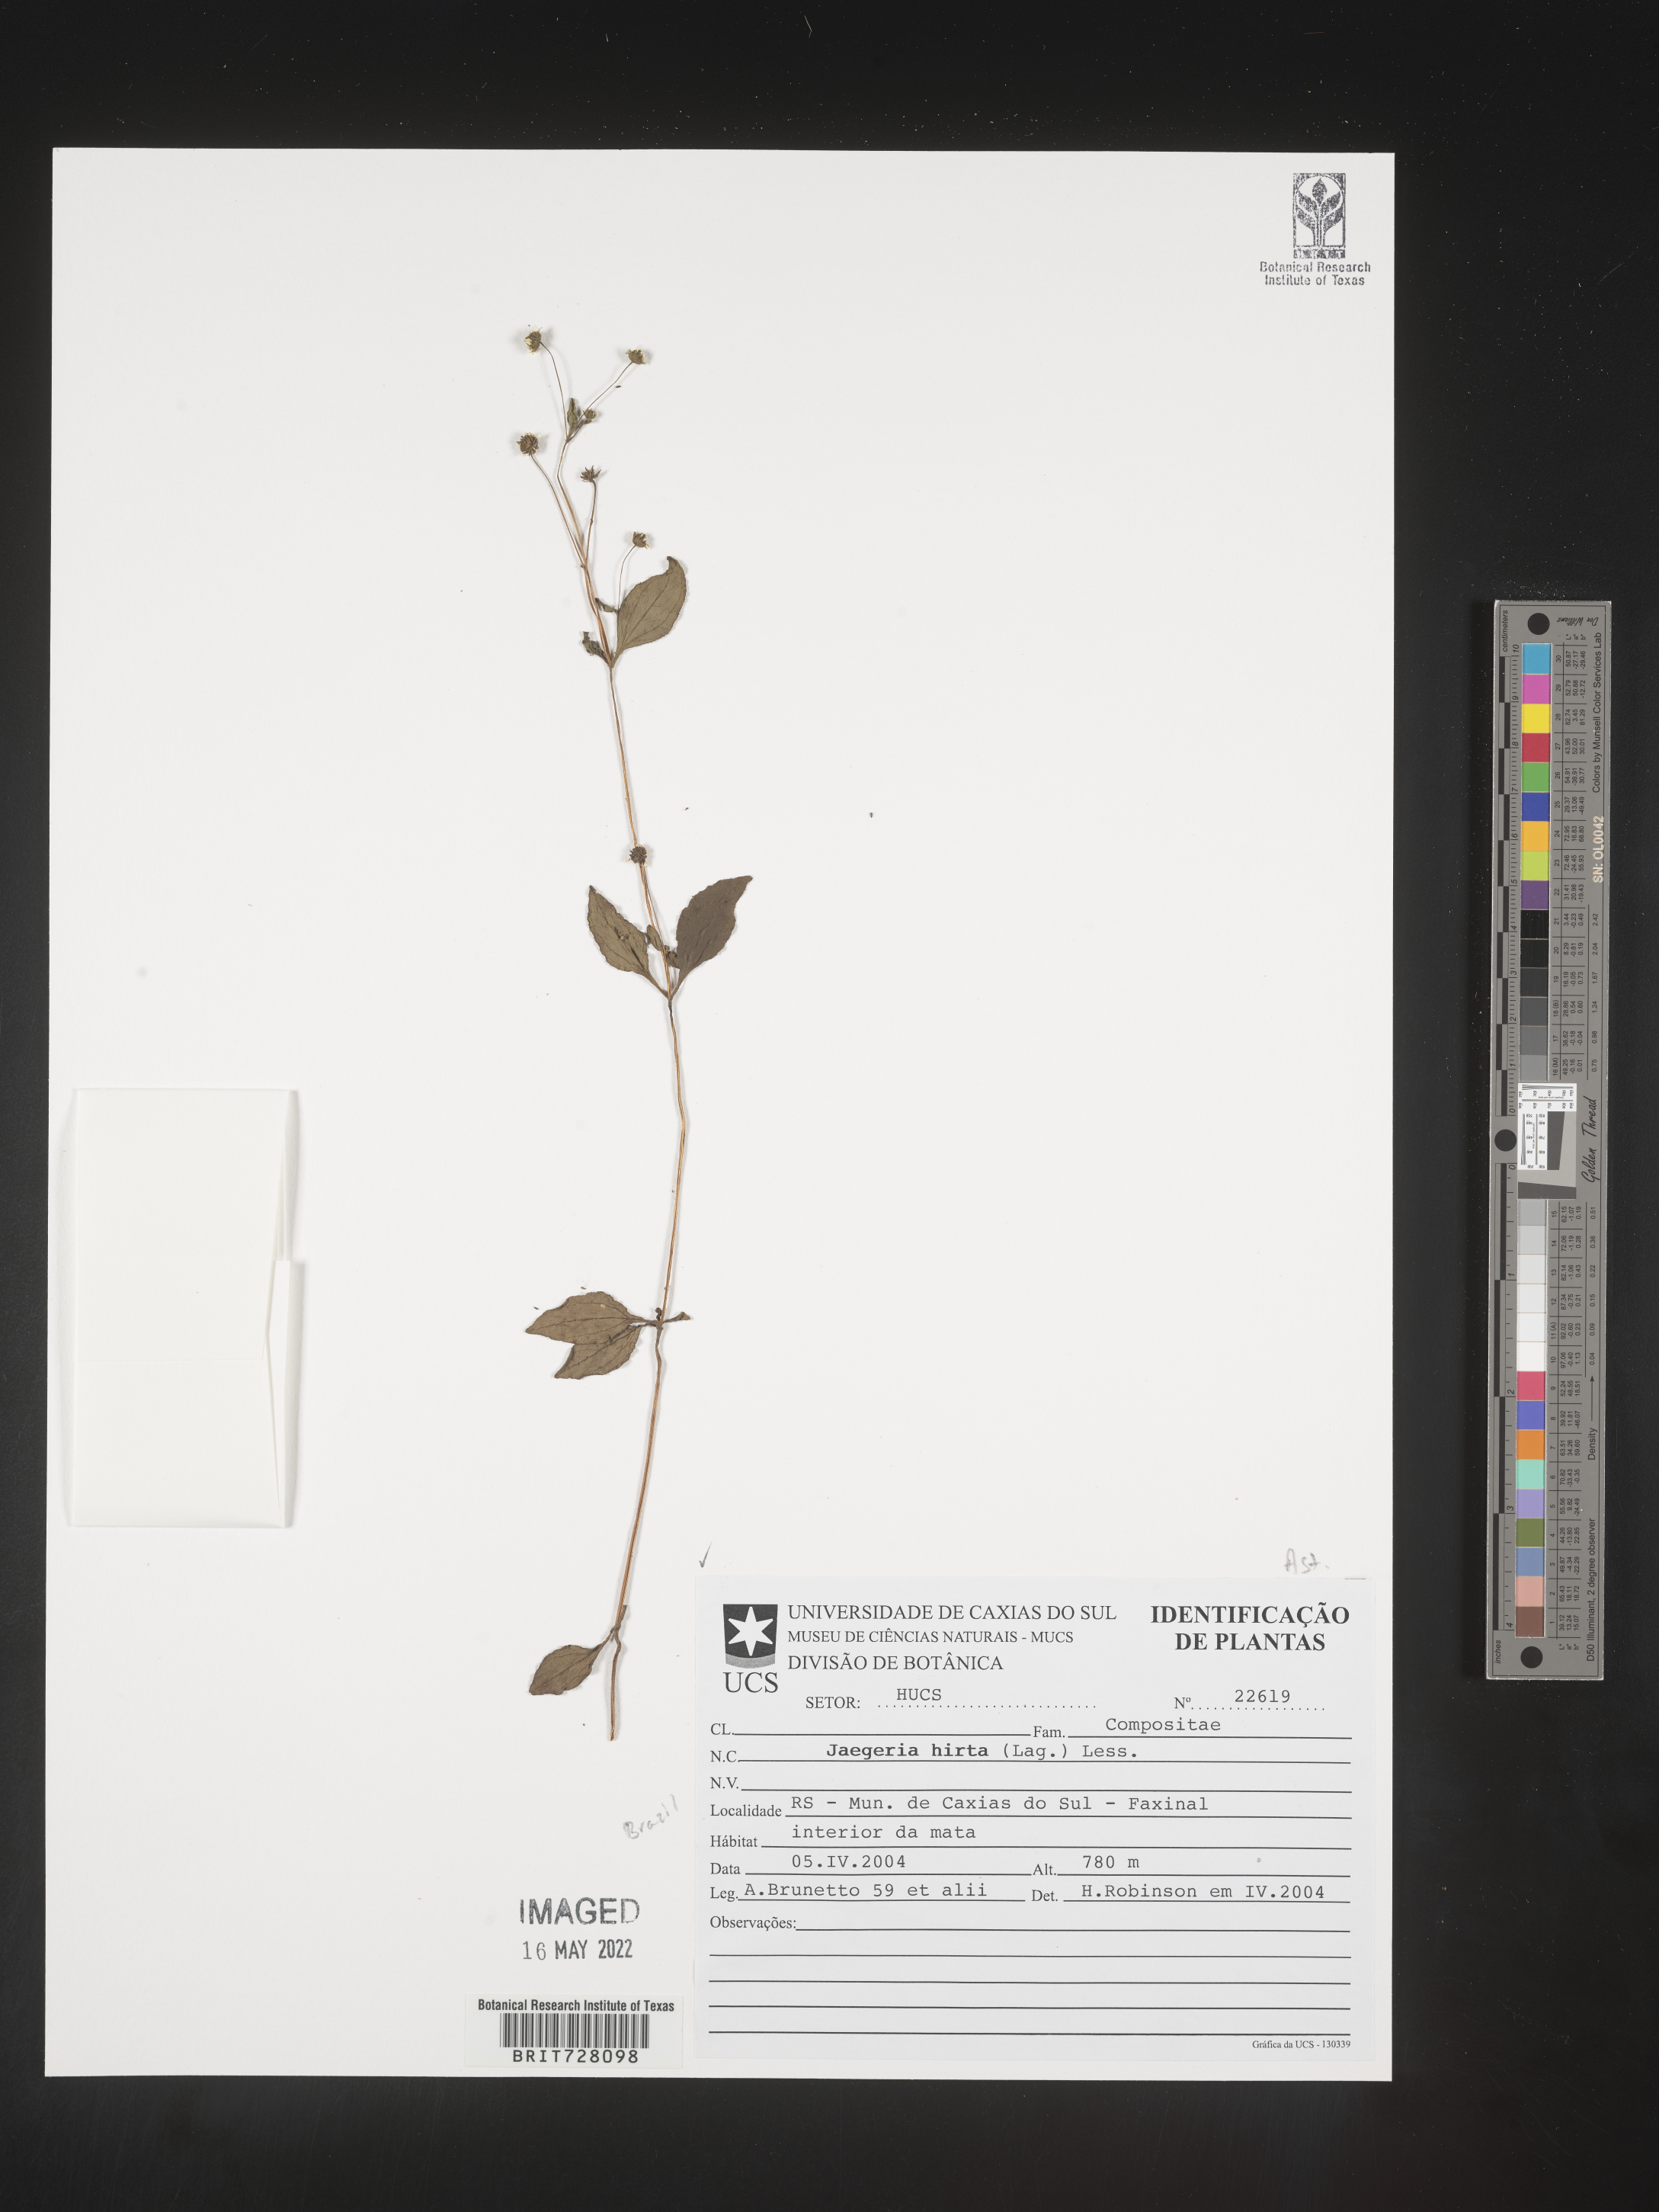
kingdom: Plantae
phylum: Tracheophyta
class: Magnoliopsida
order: Asterales
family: Asteraceae
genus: Jaegeria
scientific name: Jaegeria
